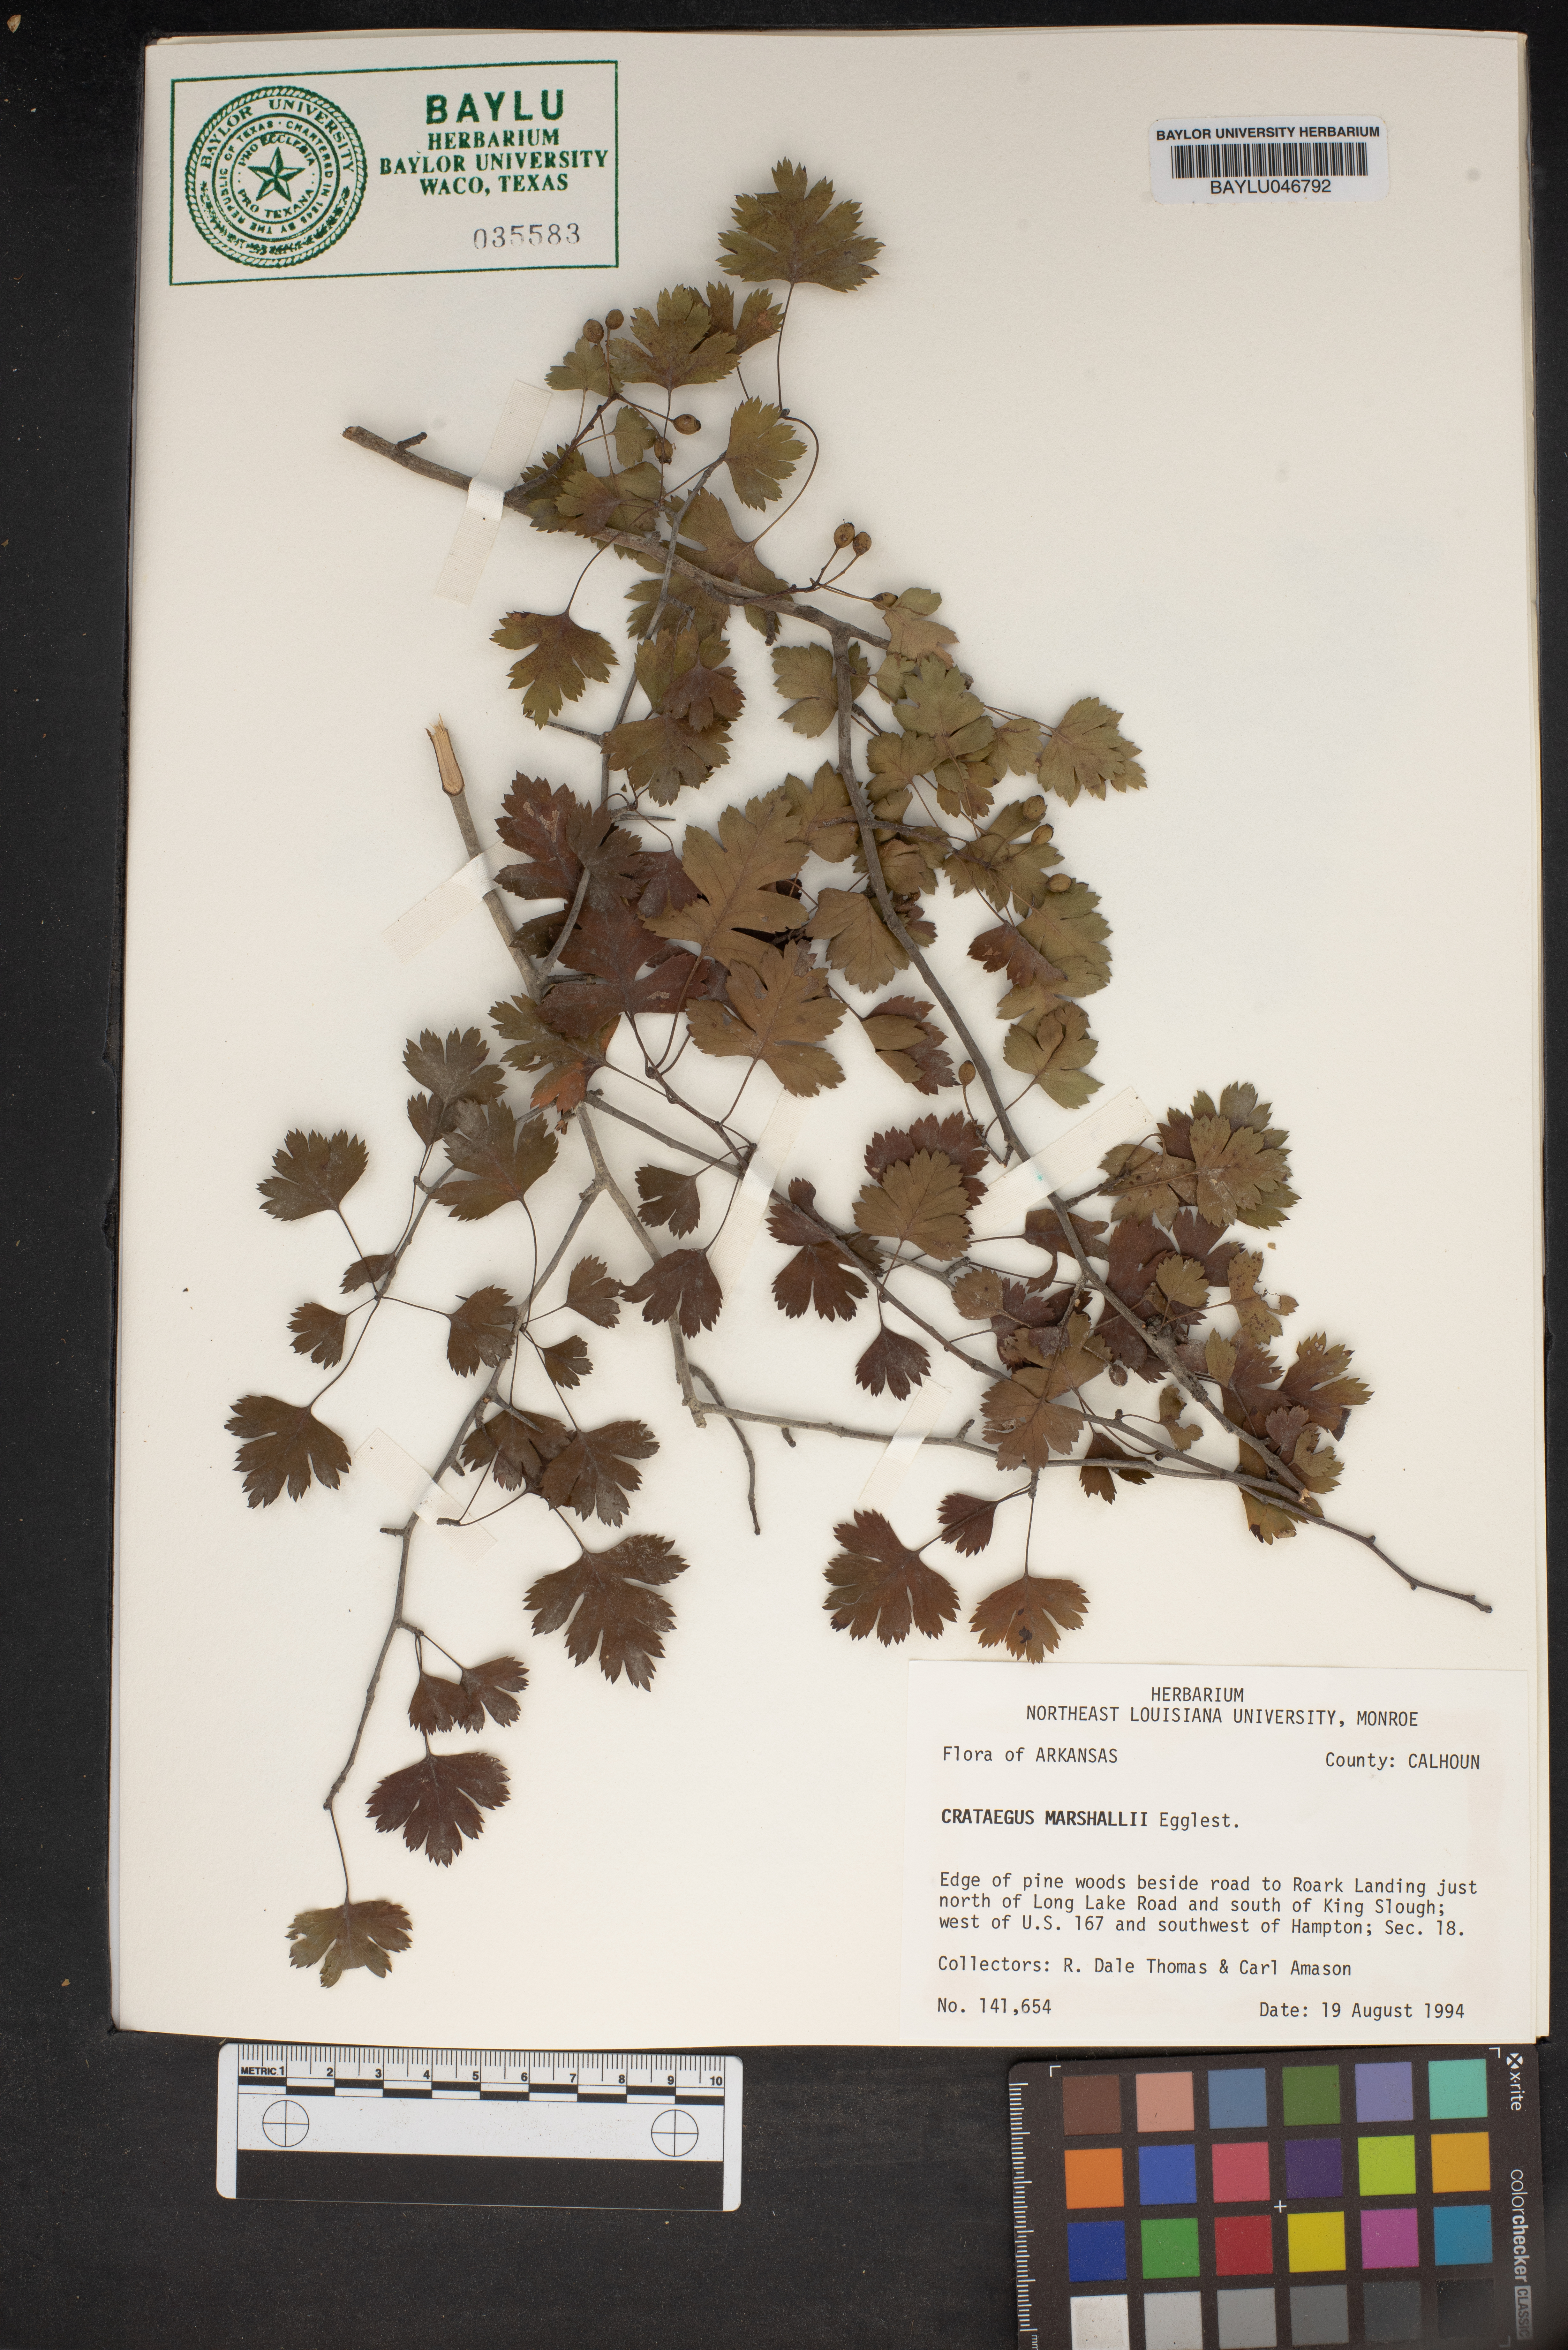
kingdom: Plantae
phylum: Tracheophyta
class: Magnoliopsida
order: Rosales
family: Rosaceae
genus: Crataegus
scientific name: Crataegus marshallii
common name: Parsley-hawthorn
